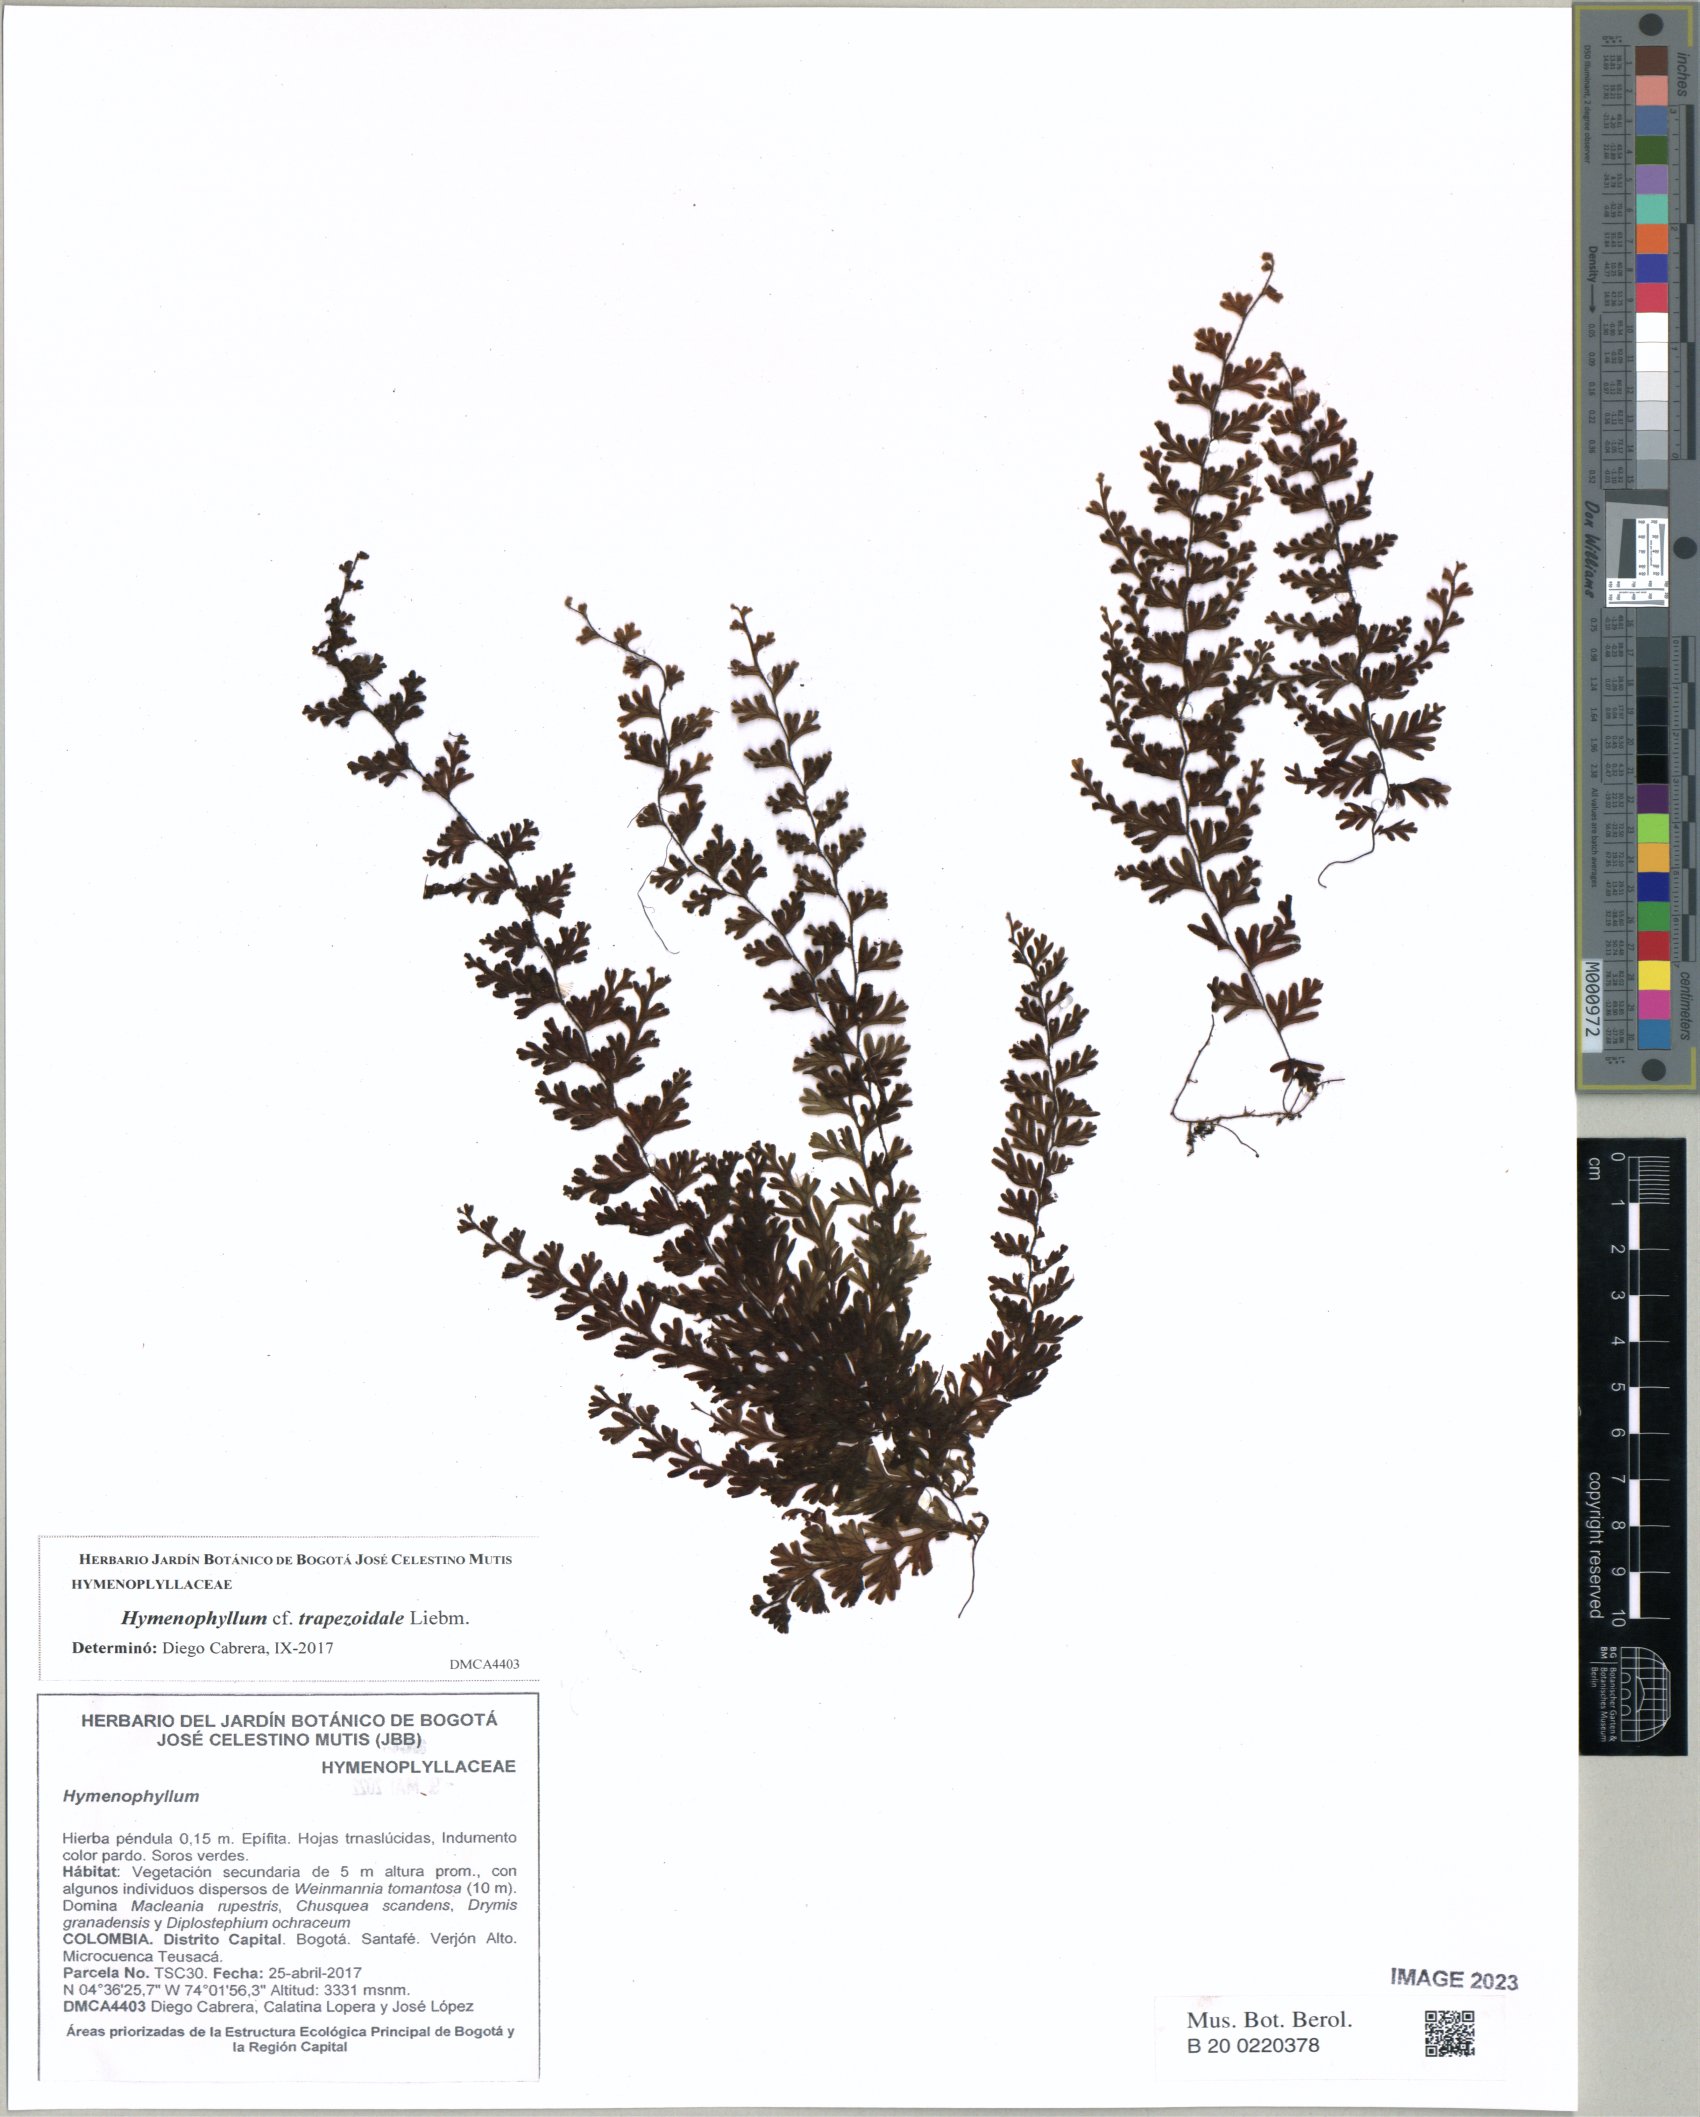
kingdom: Plantae
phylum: Tracheophyta
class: Polypodiopsida
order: Hymenophyllales
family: Hymenophyllaceae
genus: Hymenophyllum
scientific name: Hymenophyllum trapezoidale
